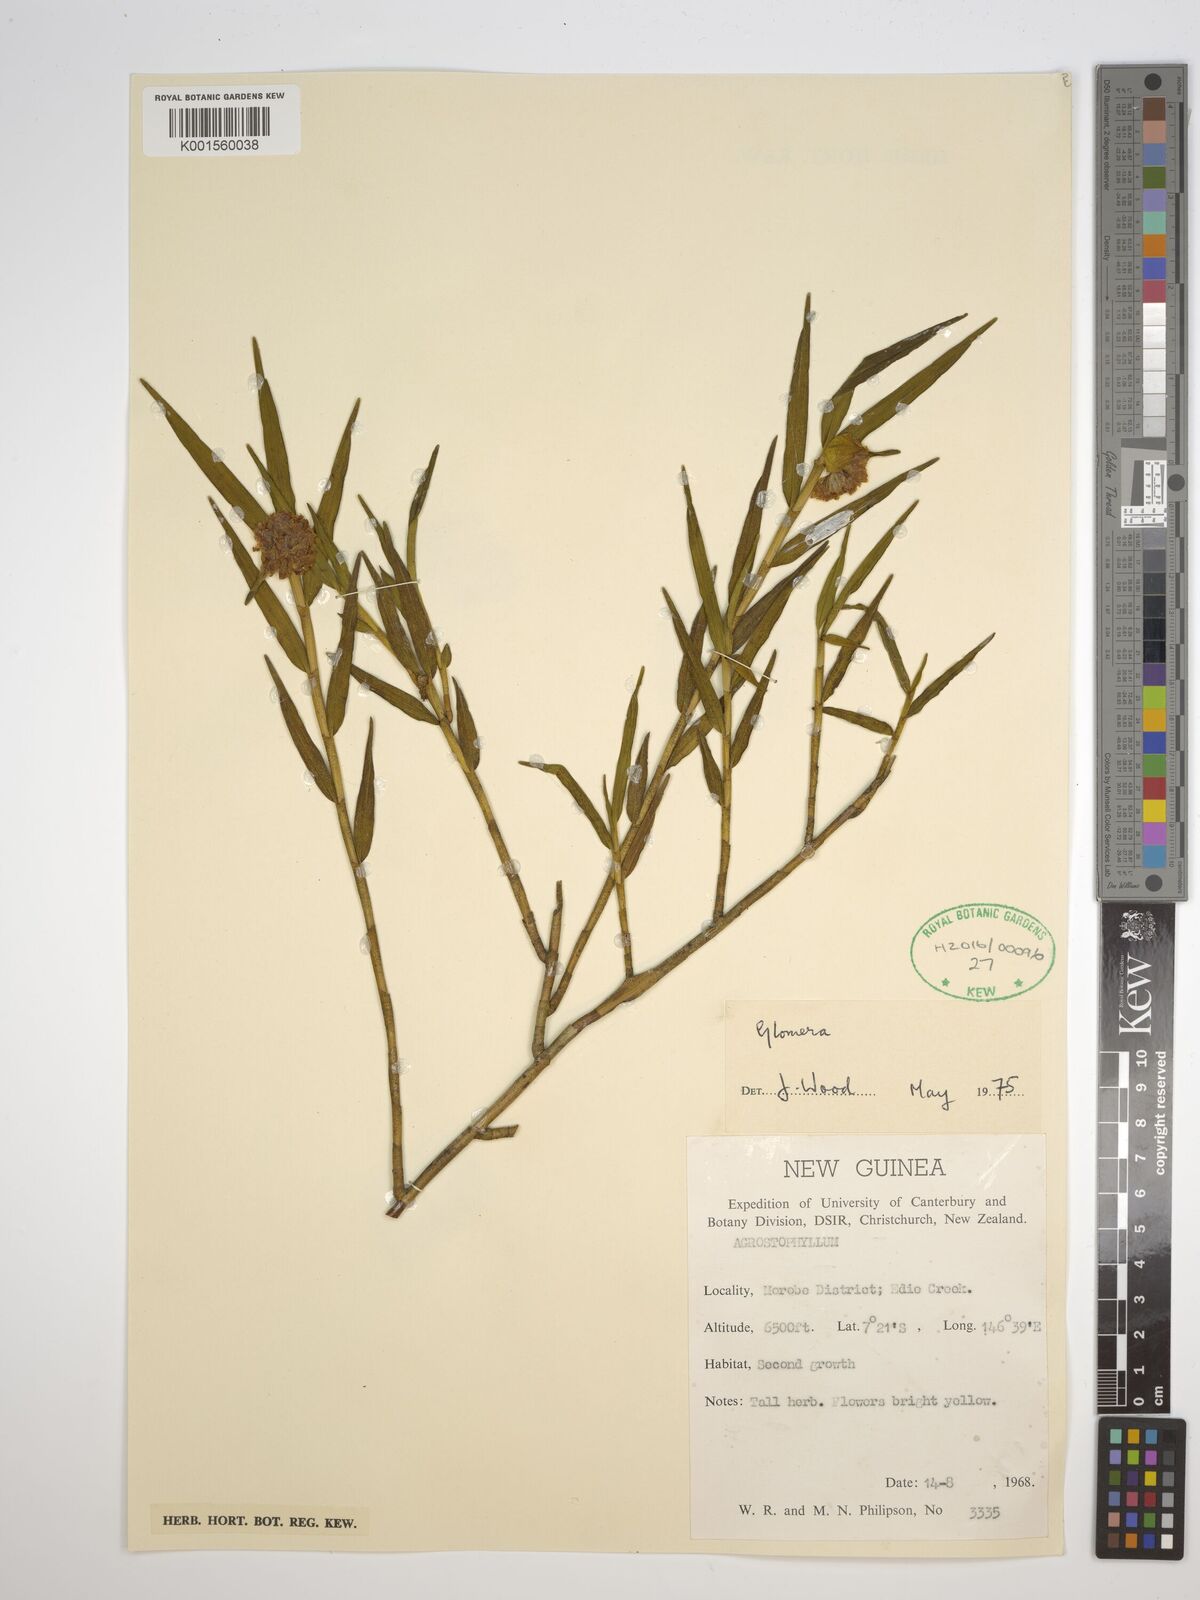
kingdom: Plantae
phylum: Tracheophyta
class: Liliopsida
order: Asparagales
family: Orchidaceae
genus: Glomera
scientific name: Glomera
